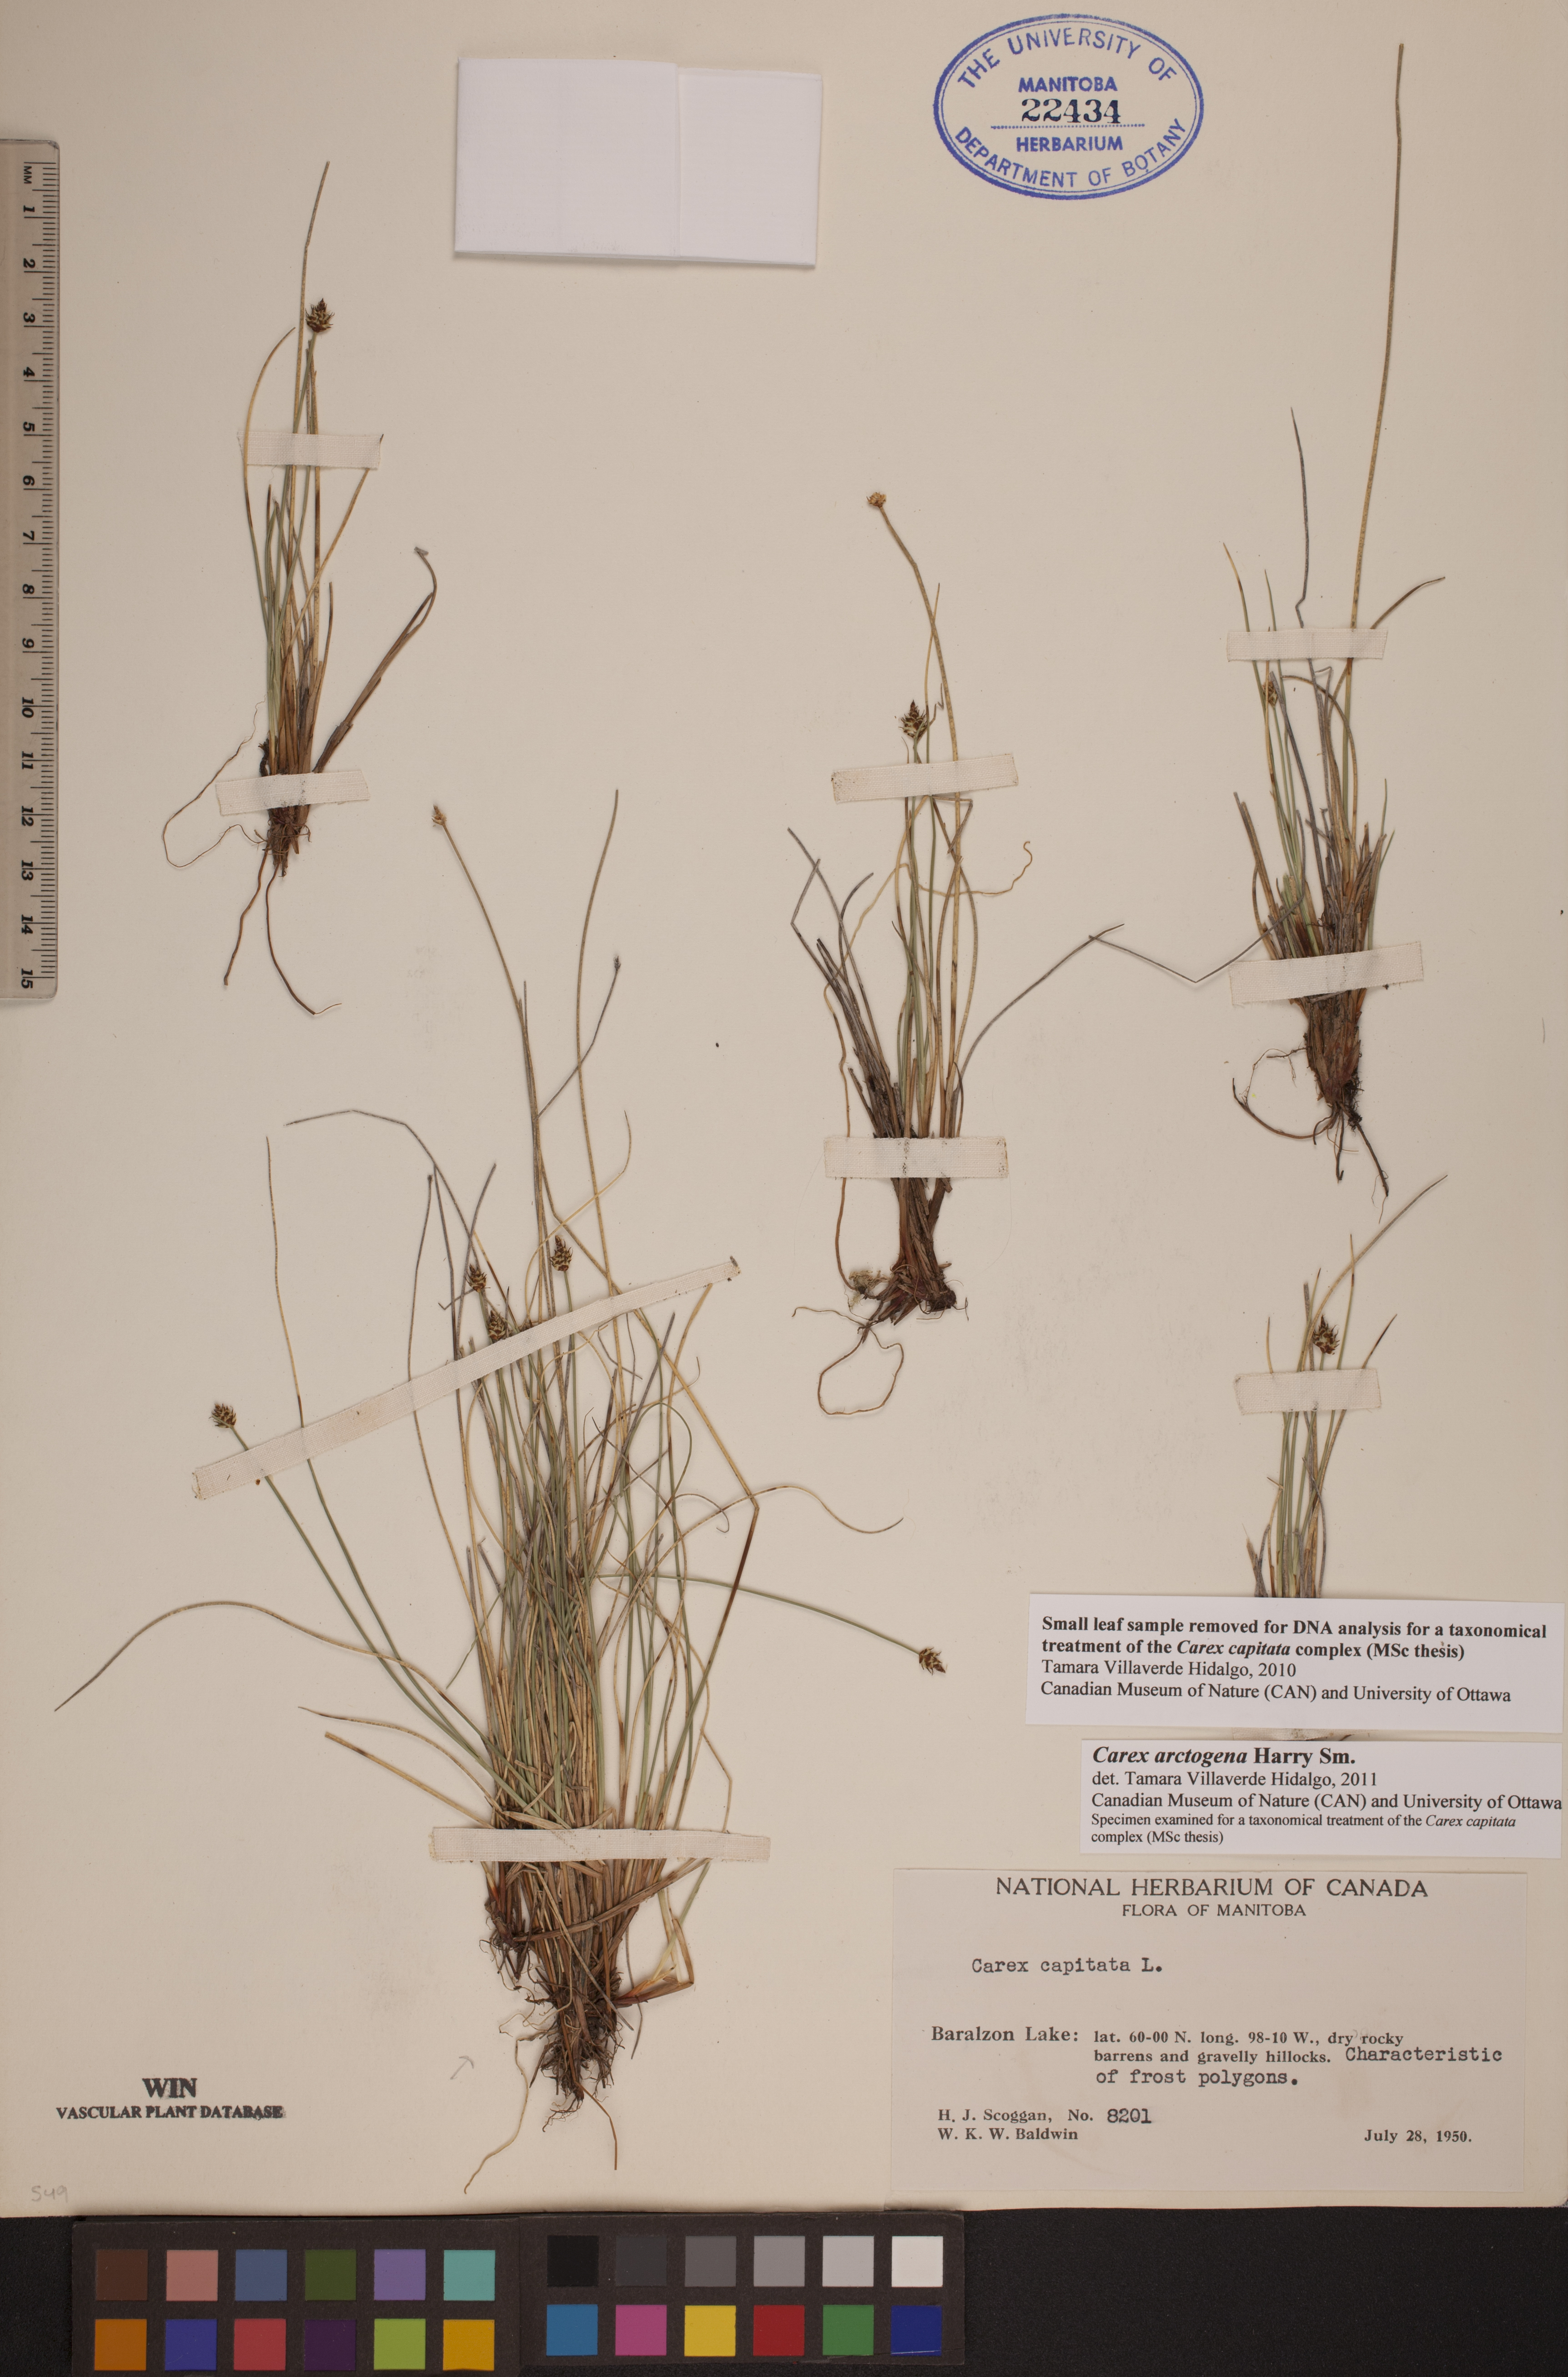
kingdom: Plantae
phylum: Tracheophyta
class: Liliopsida
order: Poales
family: Cyperaceae
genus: Carex
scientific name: Carex arctogena
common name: Black sedge
